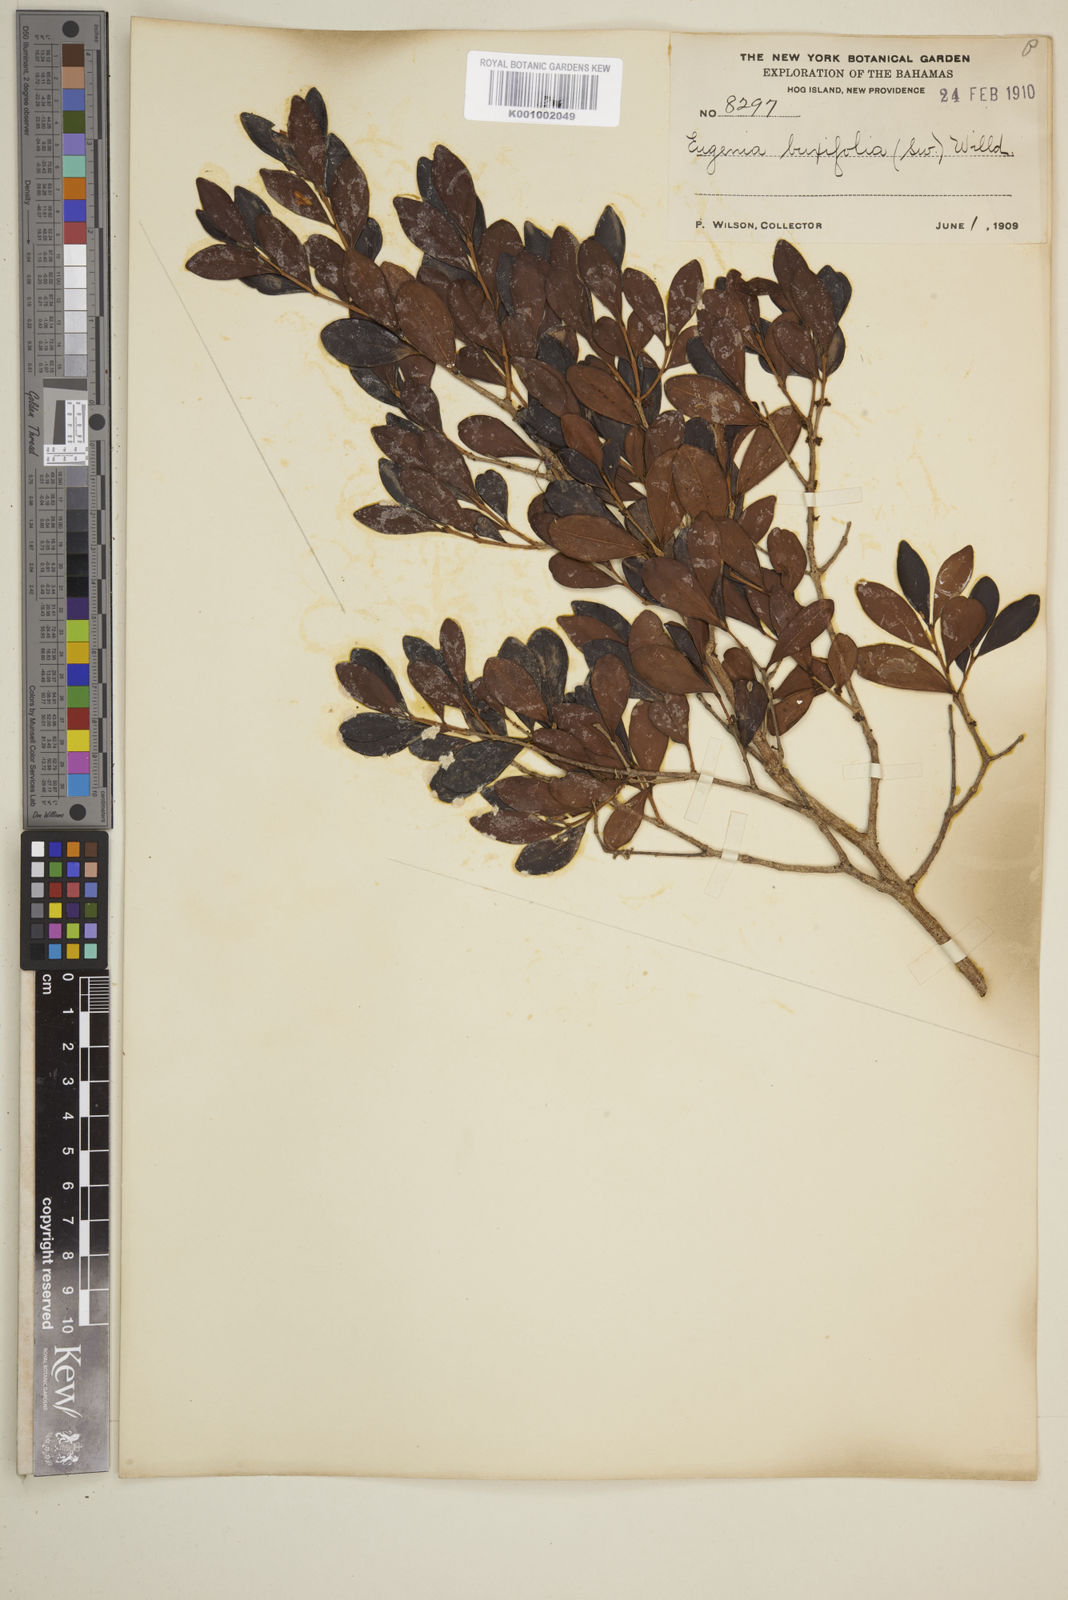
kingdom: Plantae
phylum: Tracheophyta
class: Magnoliopsida
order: Myrtales
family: Myrtaceae
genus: Eugenia
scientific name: Eugenia buxifolia
